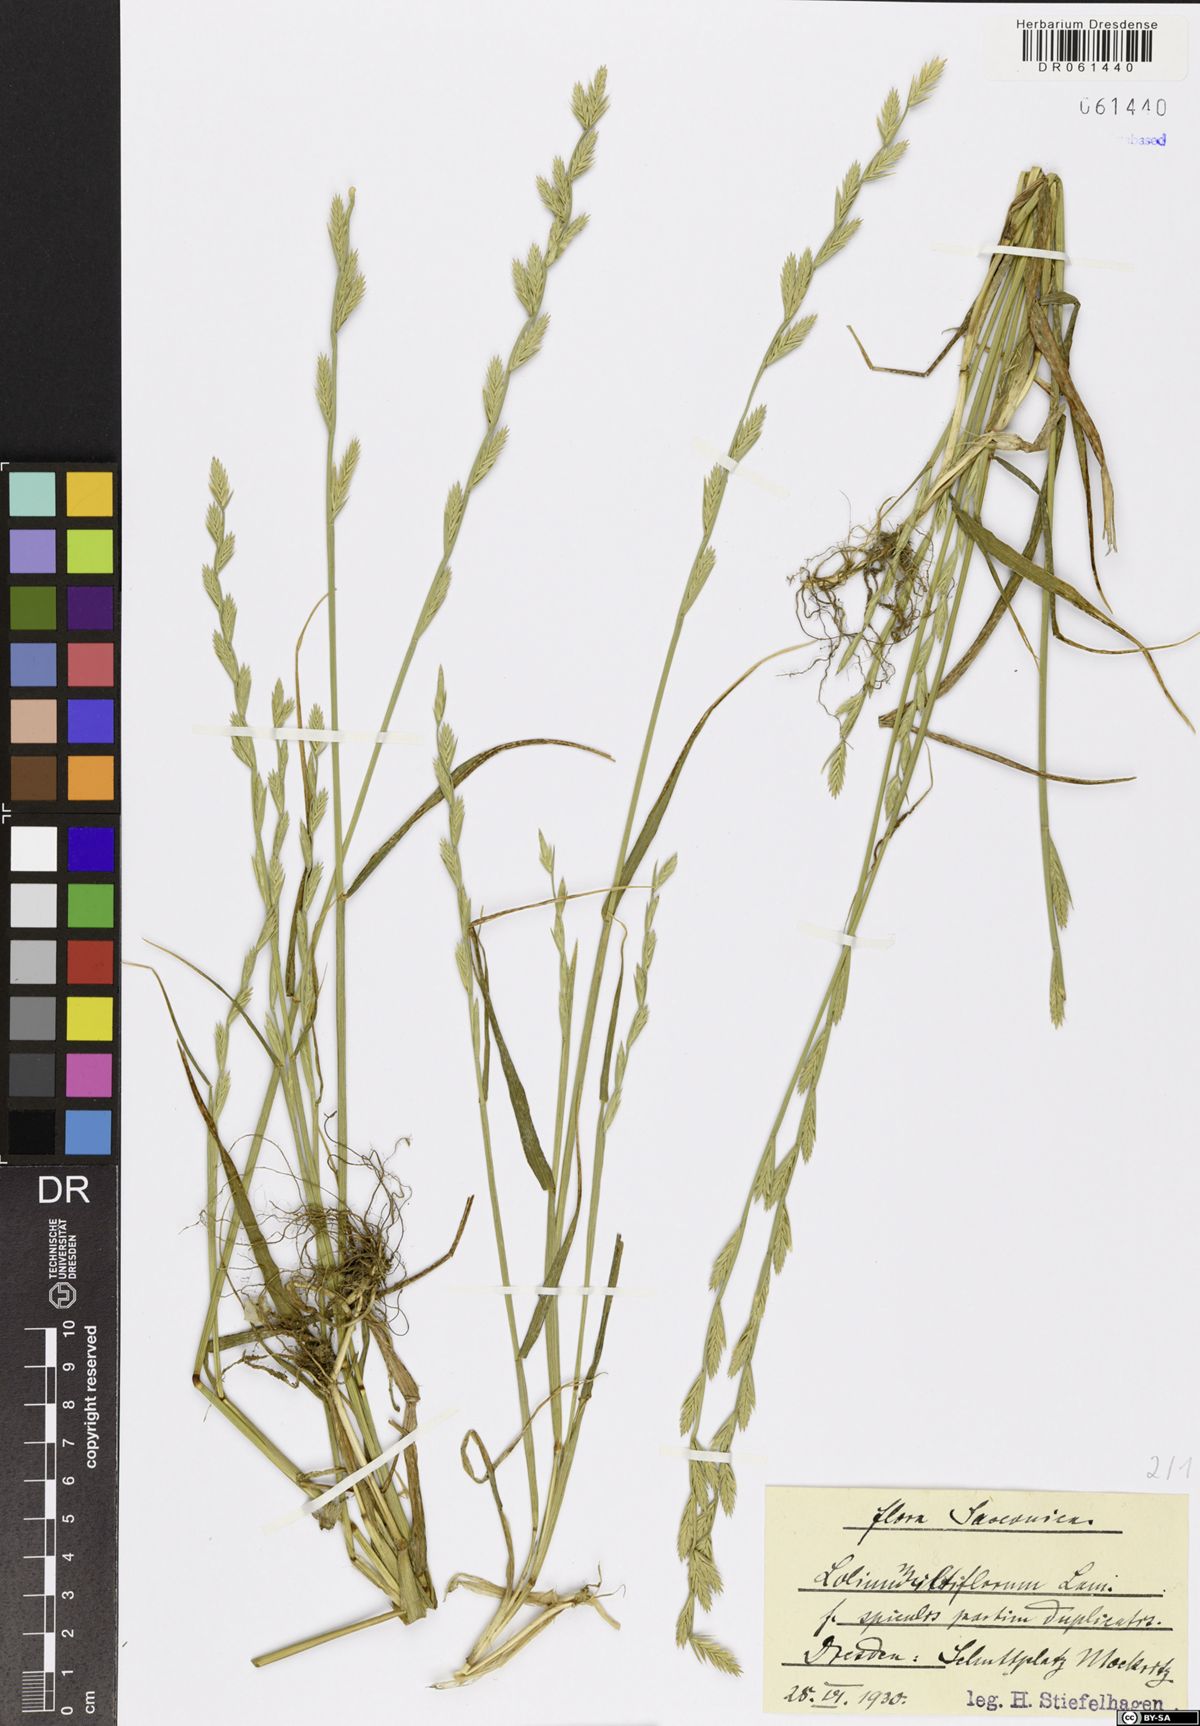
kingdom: Plantae
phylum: Tracheophyta
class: Liliopsida
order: Poales
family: Poaceae
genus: Lolium
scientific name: Lolium multiflorum
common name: Annual ryegrass
